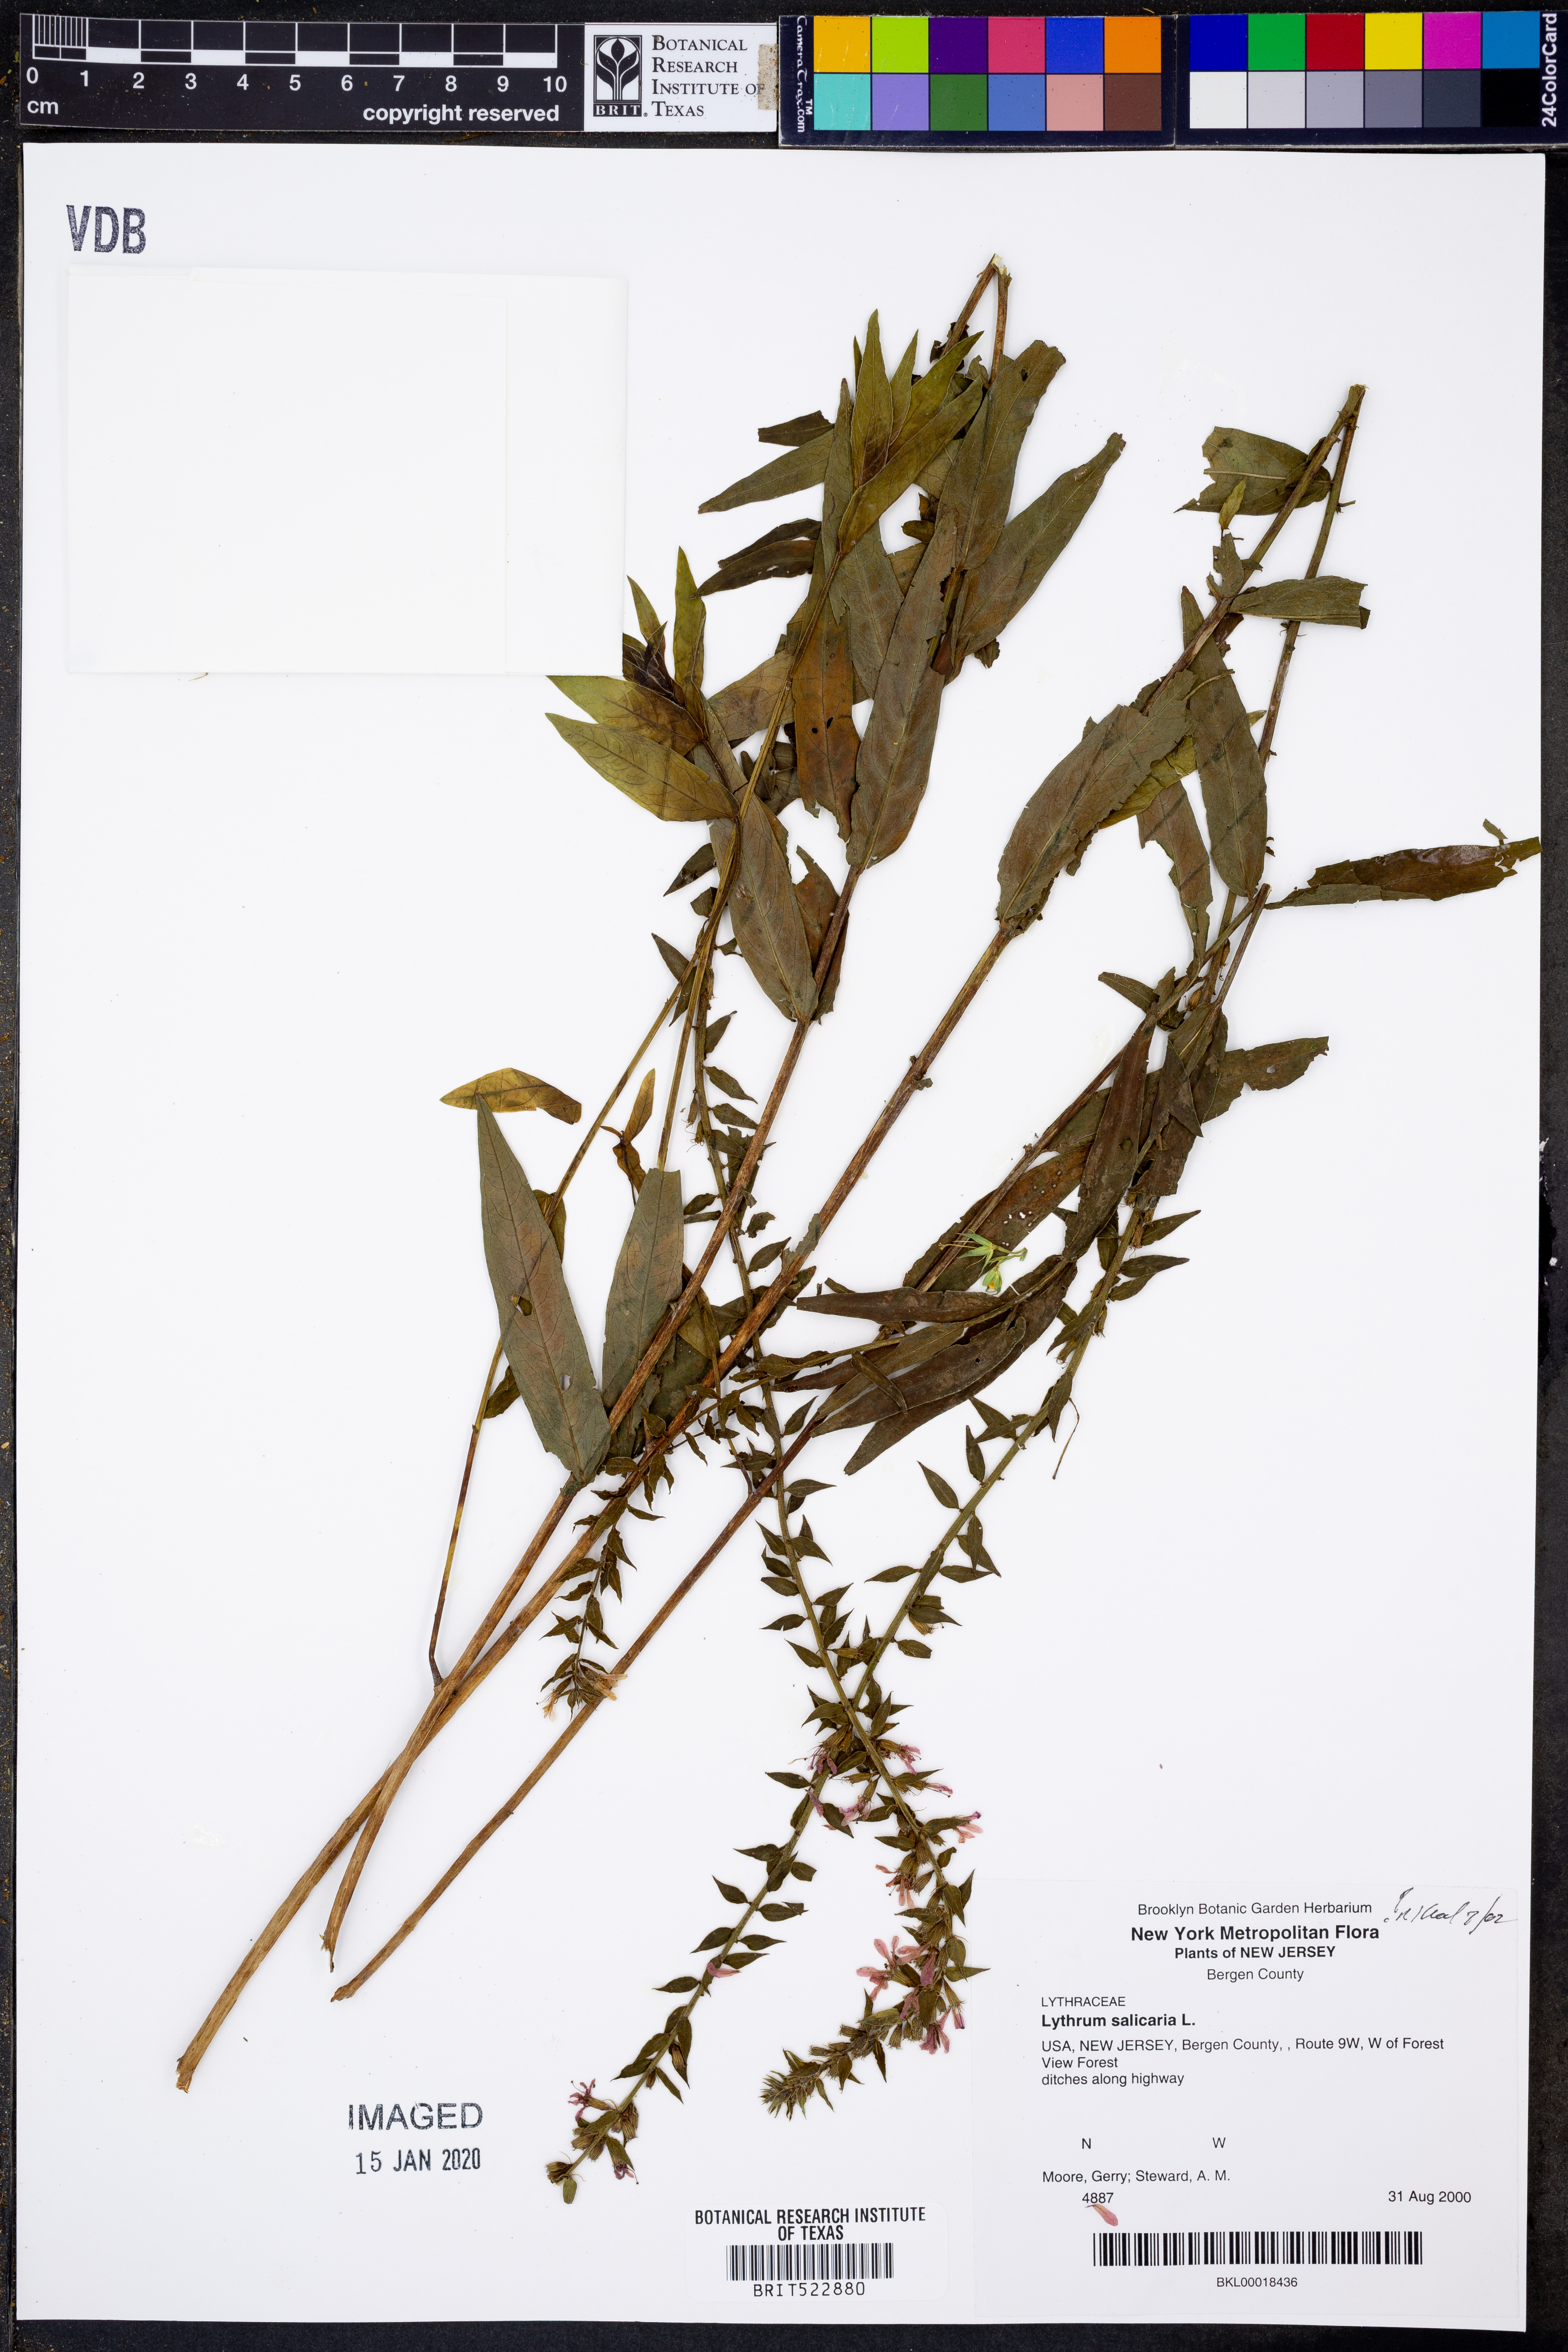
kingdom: Plantae
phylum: Tracheophyta
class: Magnoliopsida
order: Myrtales
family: Lythraceae
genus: Lythrum
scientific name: Lythrum salicaria
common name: Purple loosestrife
